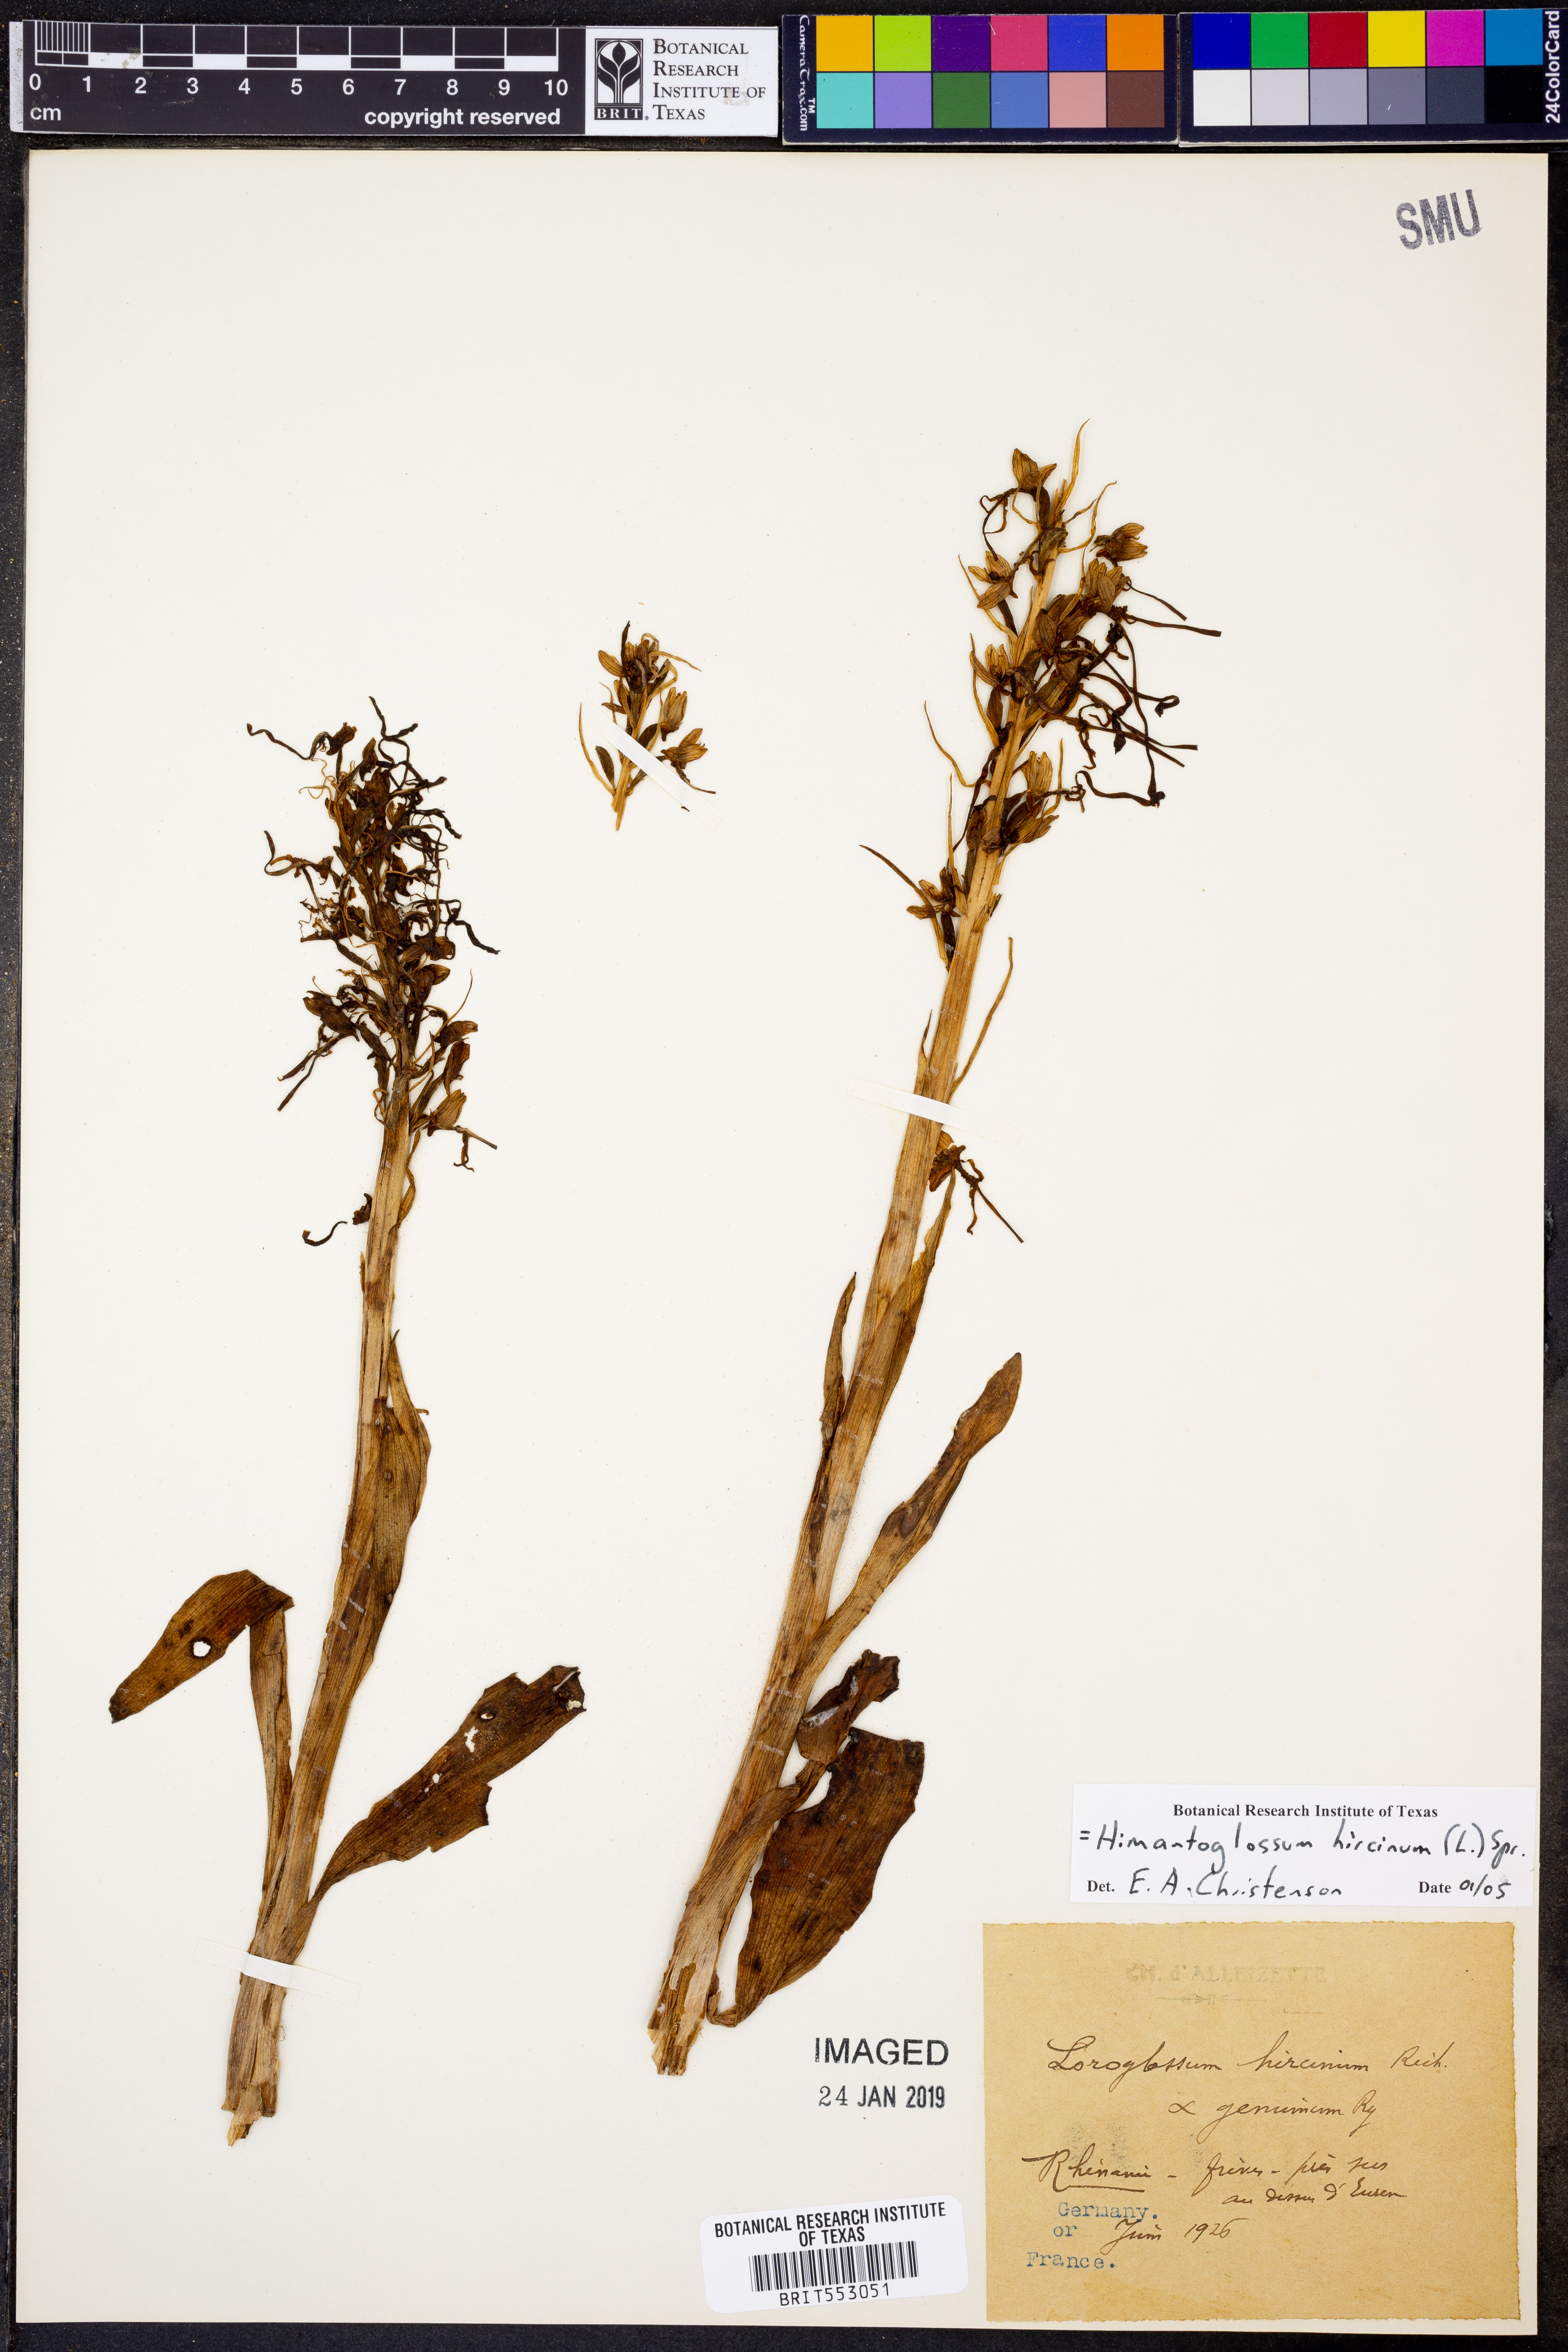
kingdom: Plantae
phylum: Tracheophyta
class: Liliopsida
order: Asparagales
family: Orchidaceae
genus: Himantoglossum
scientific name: Himantoglossum hircinum
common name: Lizard orchid
